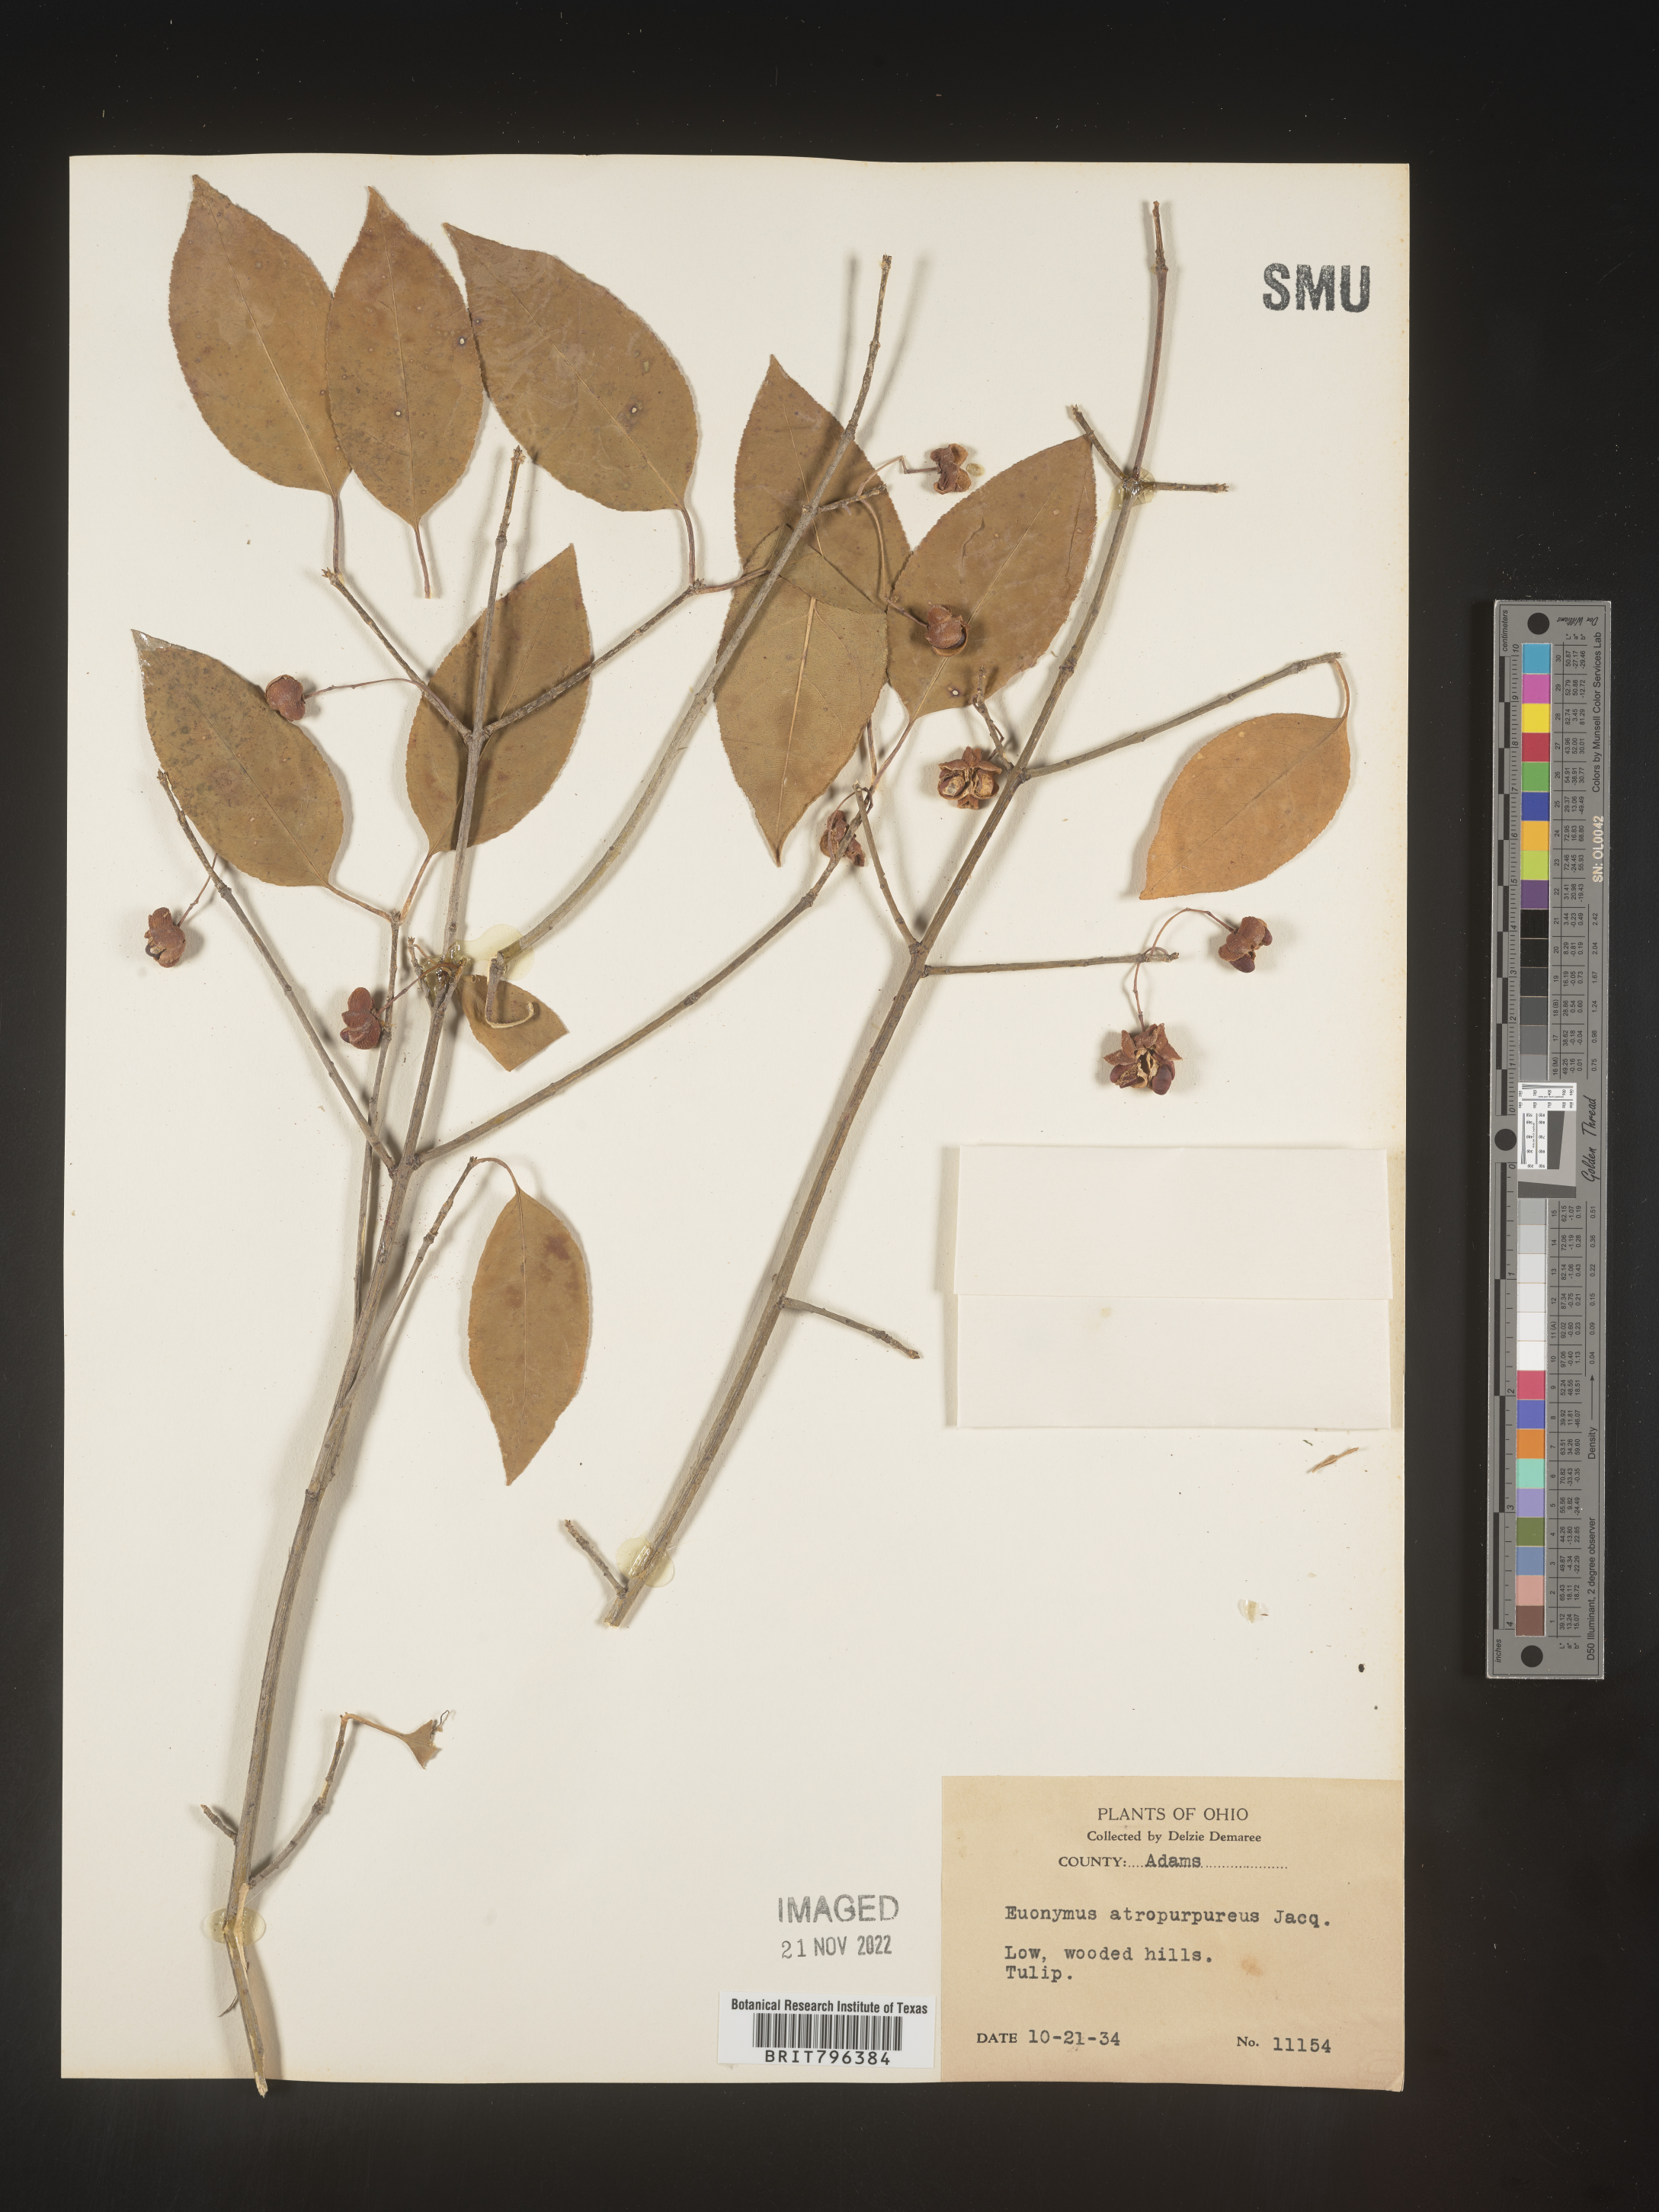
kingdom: Plantae
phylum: Tracheophyta
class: Magnoliopsida
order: Celastrales
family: Celastraceae
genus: Euonymus
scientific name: Euonymus atropurpureus
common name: Eastern wahoo
